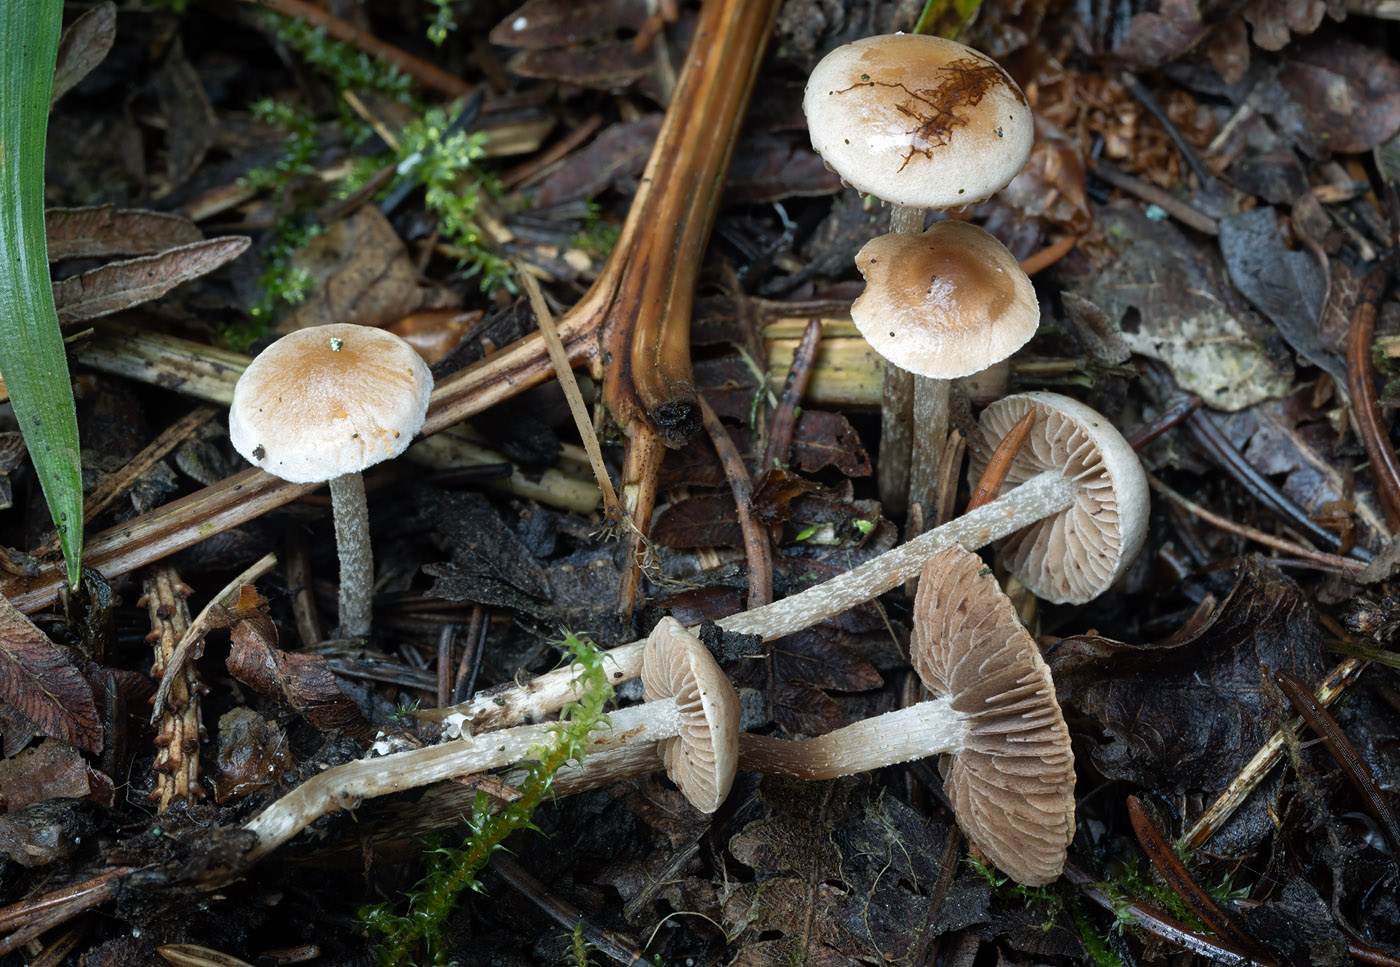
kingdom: Fungi
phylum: Basidiomycota
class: Agaricomycetes
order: Agaricales
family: Hymenogastraceae
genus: Hebeloma
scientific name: Hebeloma birrus
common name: rodslående tåreblad
